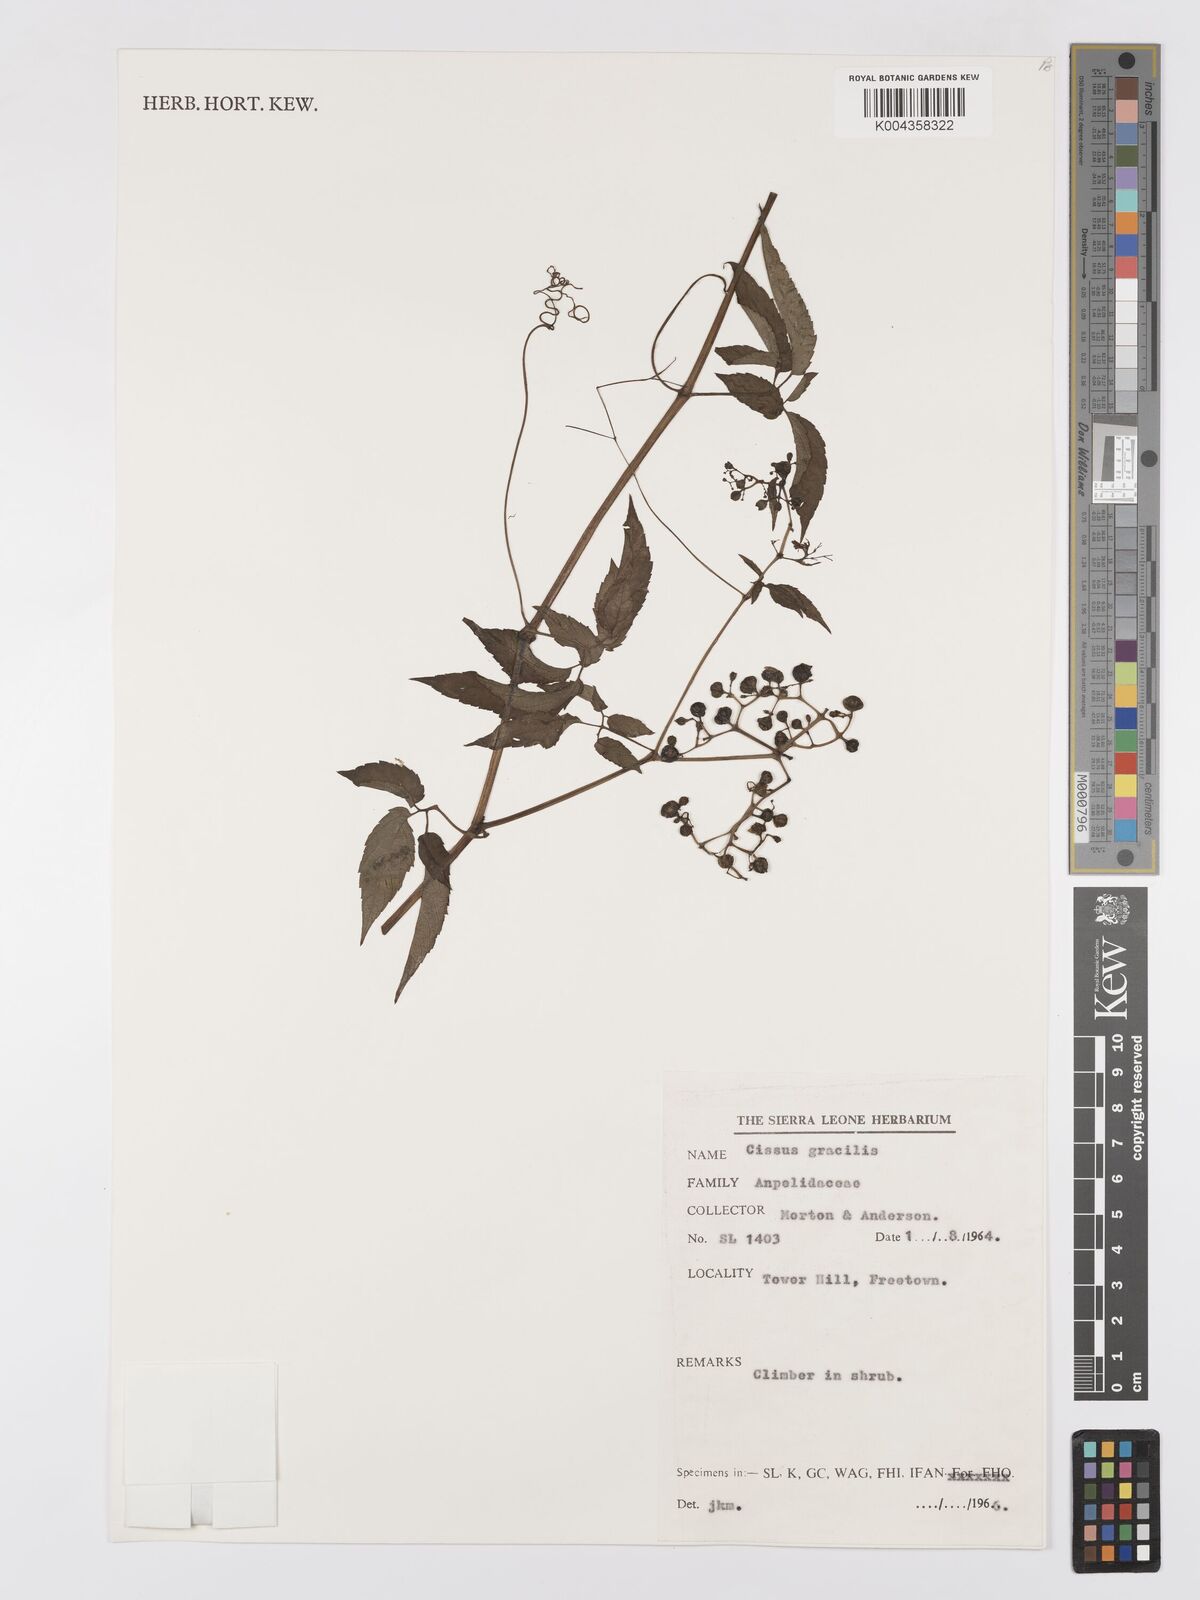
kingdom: Plantae
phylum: Tracheophyta
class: Magnoliopsida
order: Vitales
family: Vitaceae
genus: Afrocayratia
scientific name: Afrocayratia gracilis
